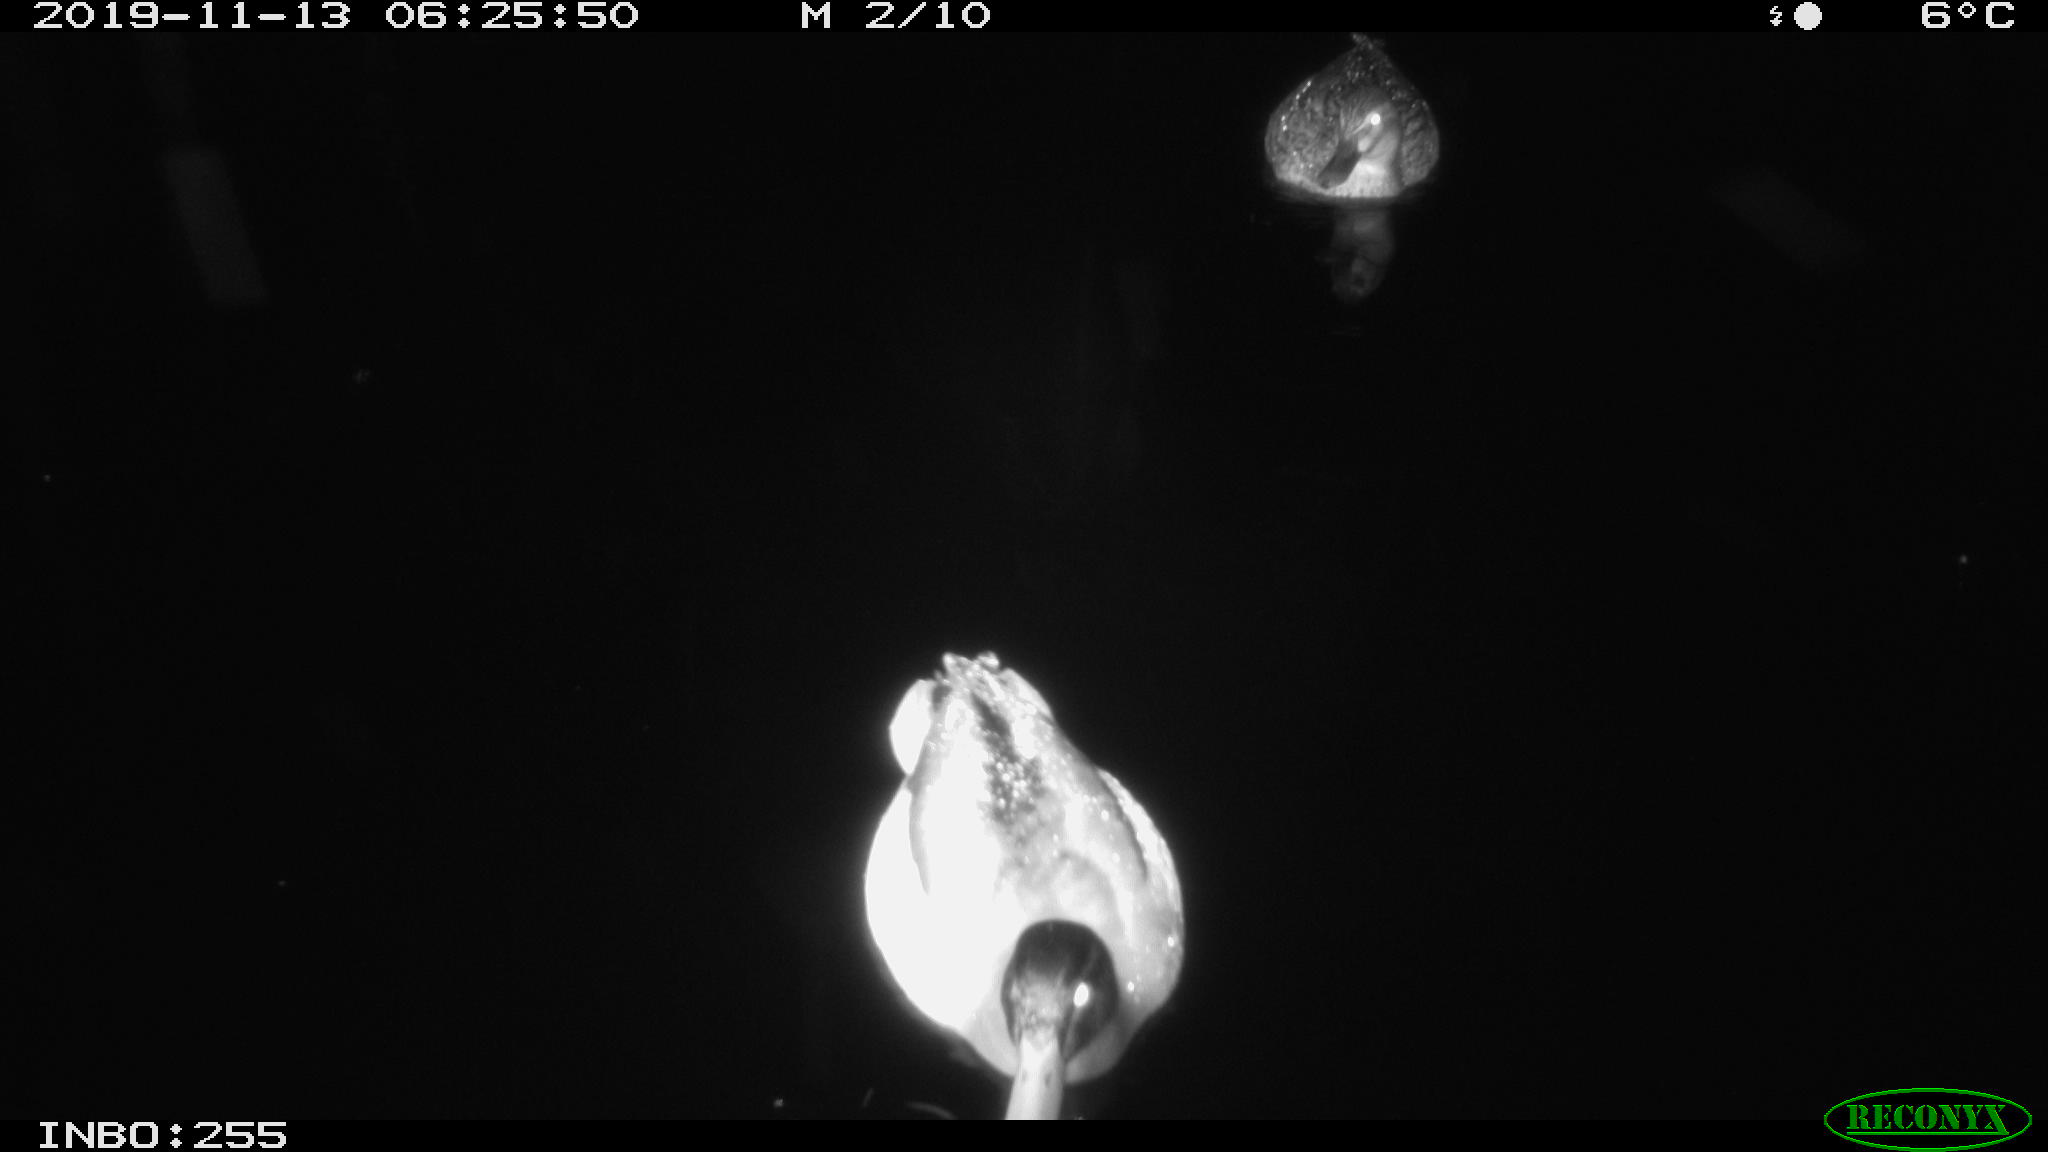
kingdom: Animalia
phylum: Chordata
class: Aves
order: Anseriformes
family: Anatidae
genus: Anas
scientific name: Anas platyrhynchos
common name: Mallard
